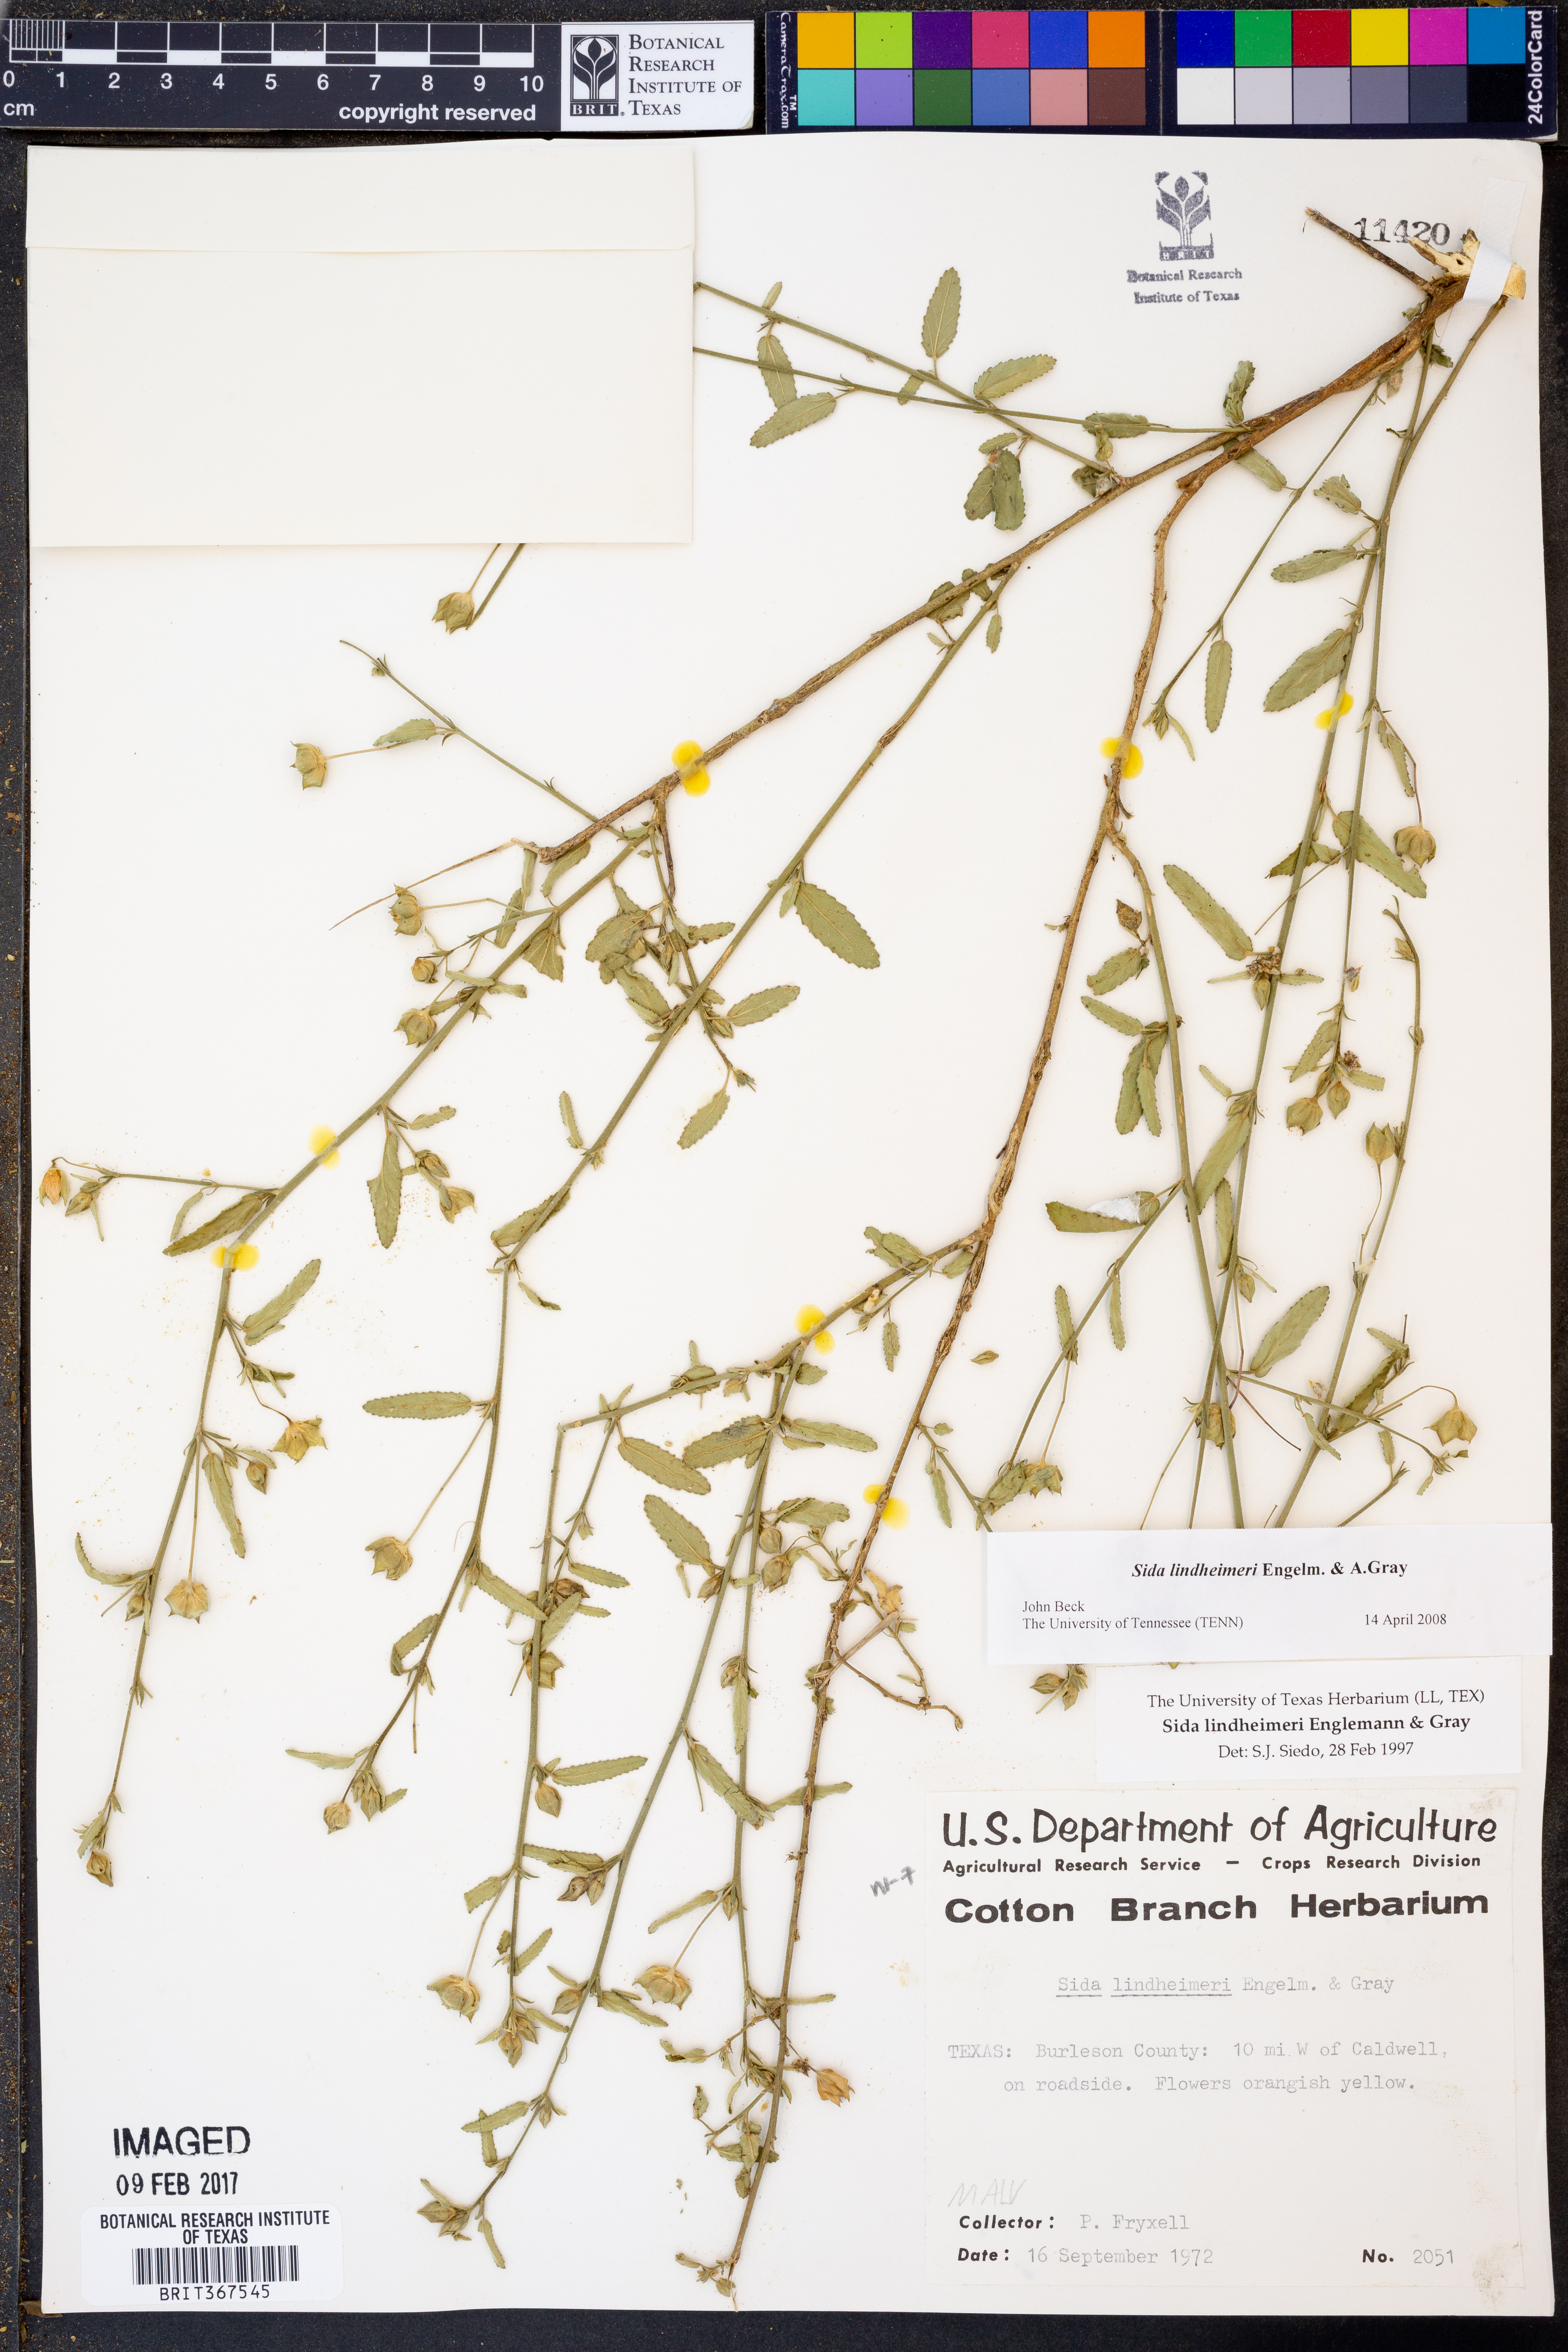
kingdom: Plantae
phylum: Tracheophyta
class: Magnoliopsida
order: Malvales
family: Malvaceae
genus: Sida
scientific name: Sida lindheimeri
